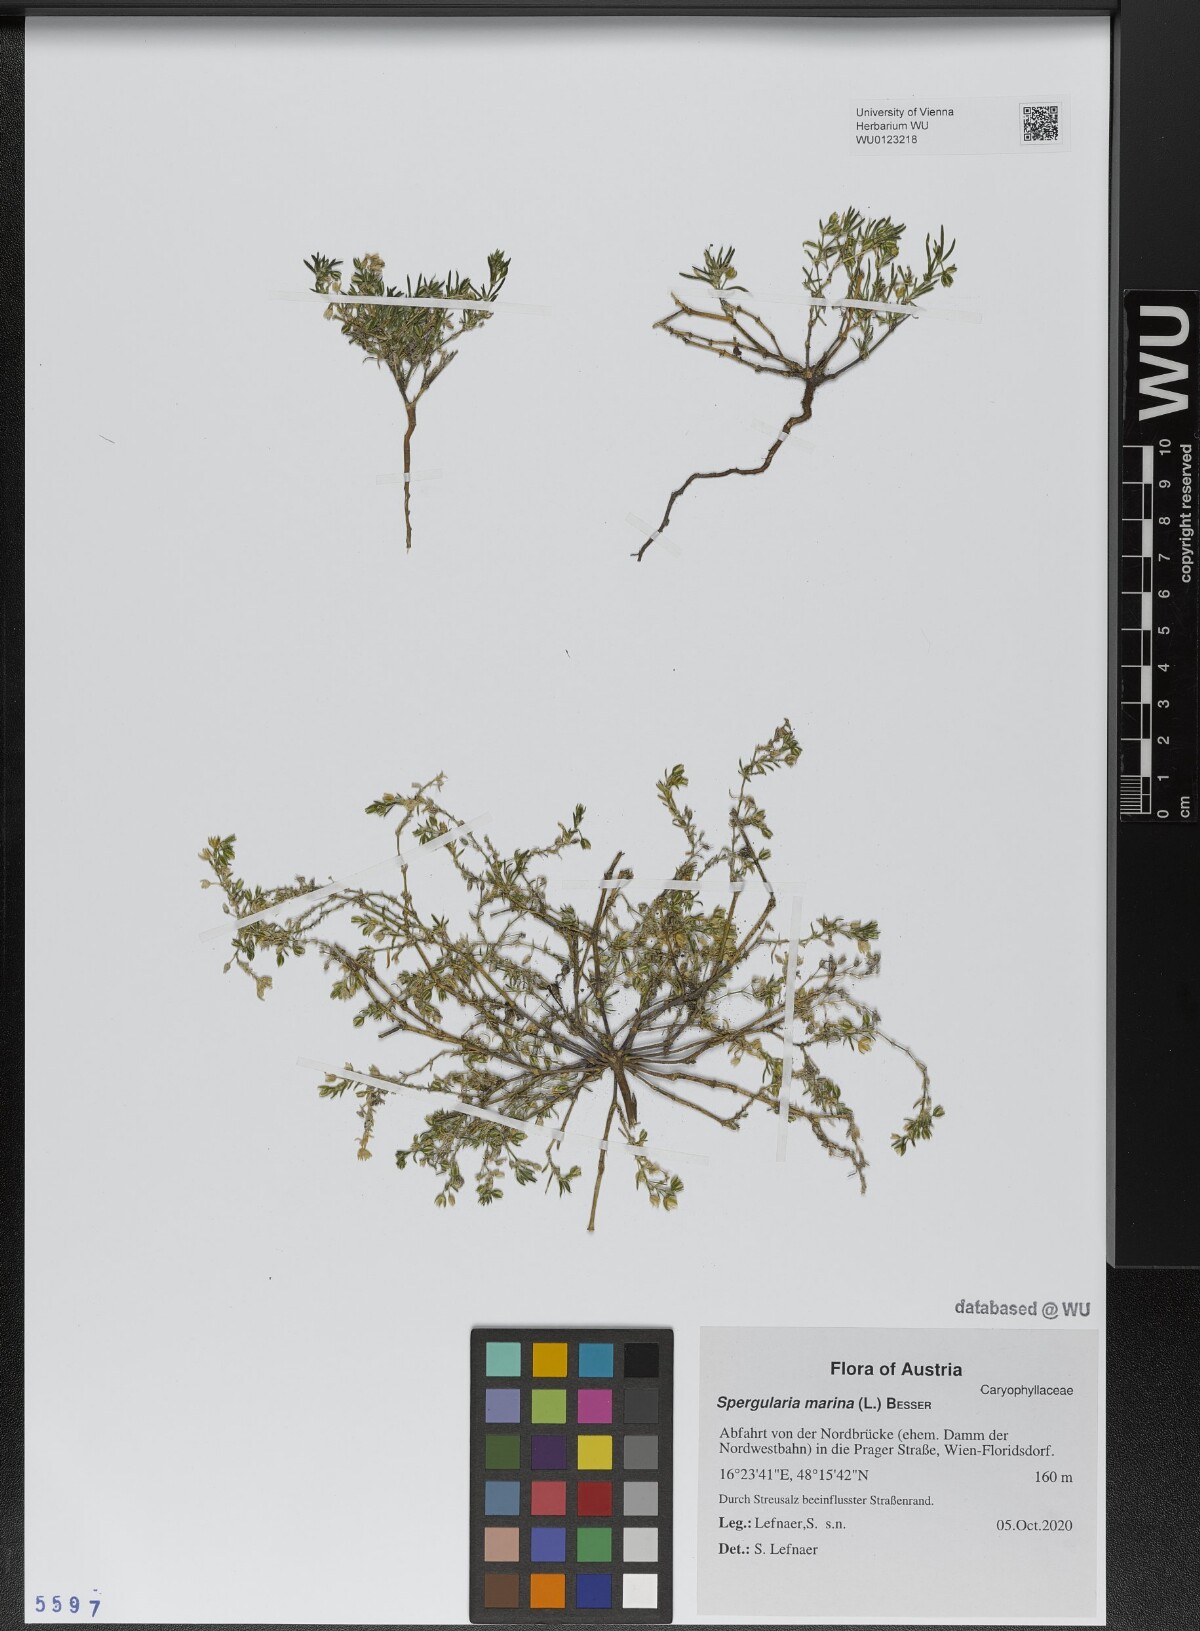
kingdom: Plantae
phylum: Tracheophyta
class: Magnoliopsida
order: Caryophyllales
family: Caryophyllaceae
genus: Spergularia
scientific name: Spergularia marina
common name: Lesser sea-spurrey
